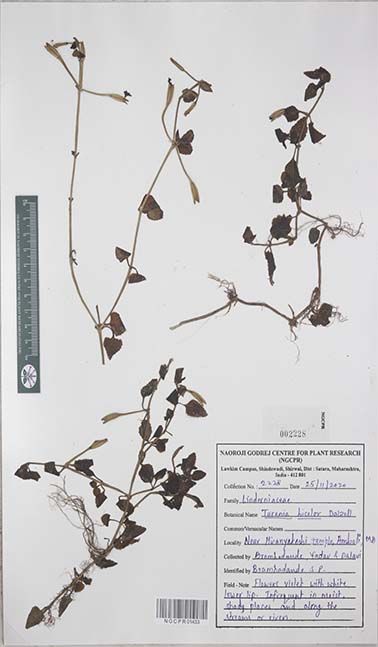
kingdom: Plantae
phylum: Tracheophyta
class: Magnoliopsida
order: Lamiales
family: Linderniaceae
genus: Torenia
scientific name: Torenia bicolor
